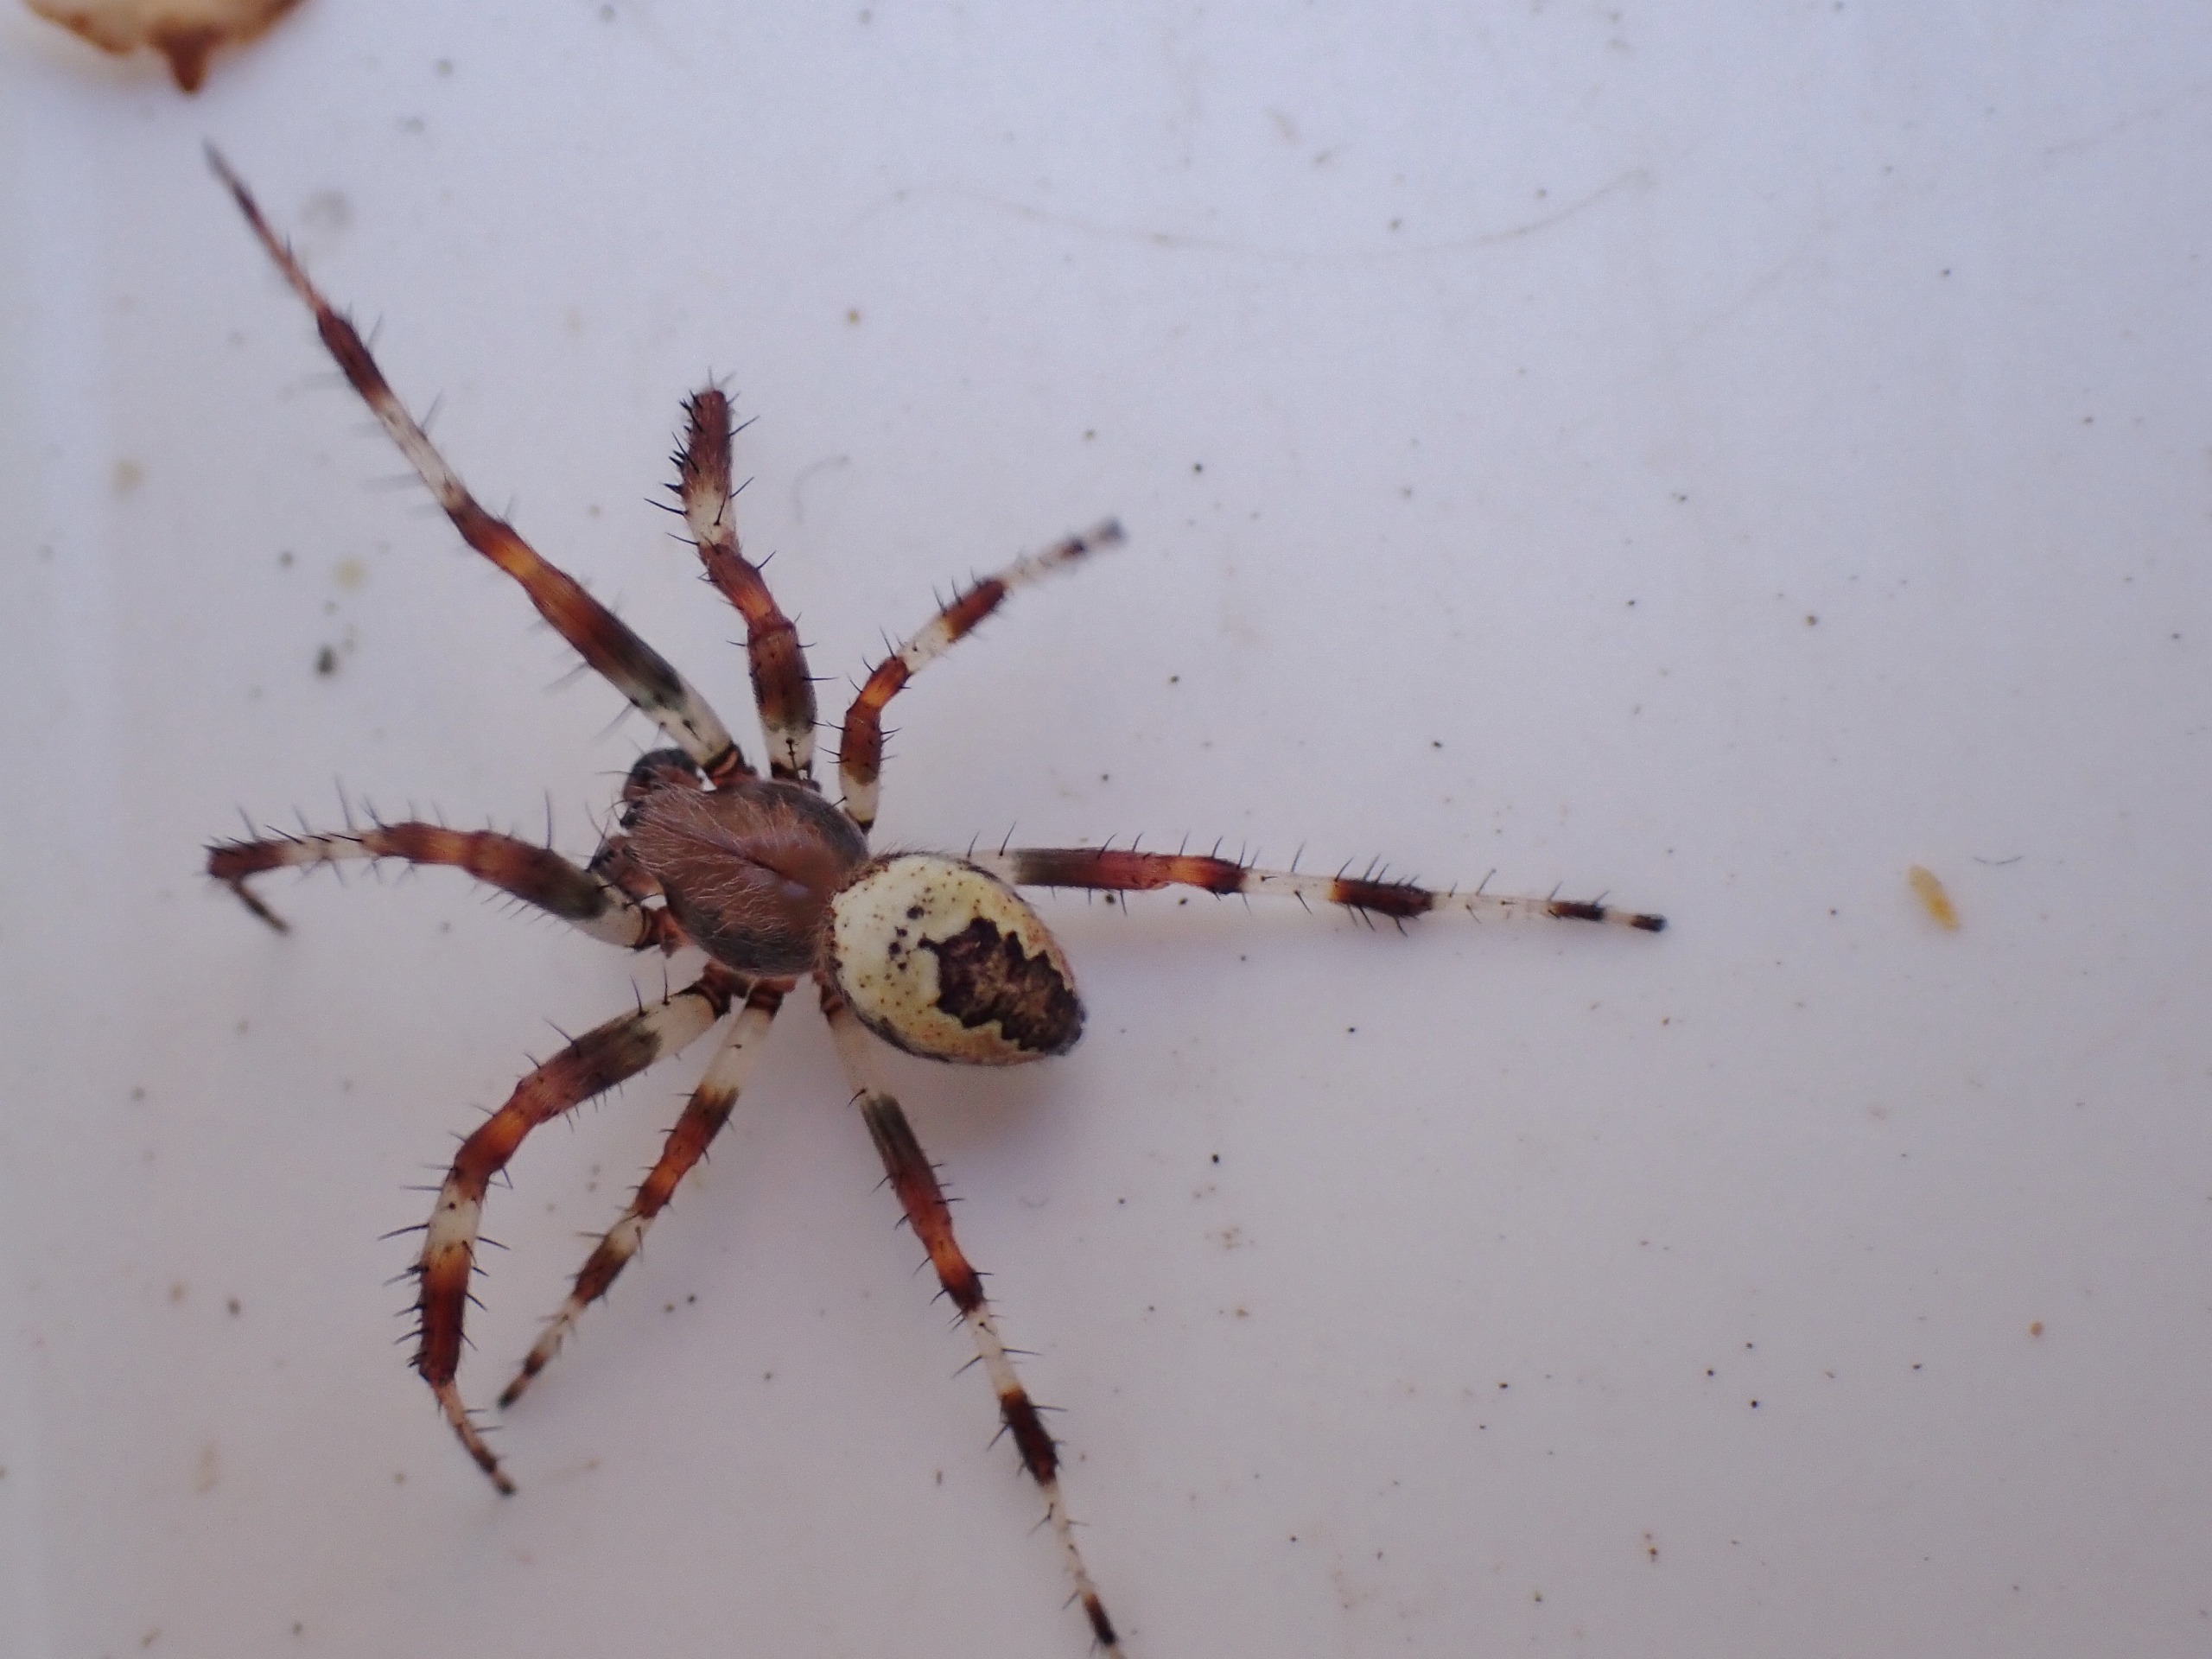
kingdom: Animalia
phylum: Arthropoda
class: Arachnida
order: Araneae
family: Araneidae
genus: Araneus
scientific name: Araneus marmoreus
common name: Marmoreret hjulspinder
